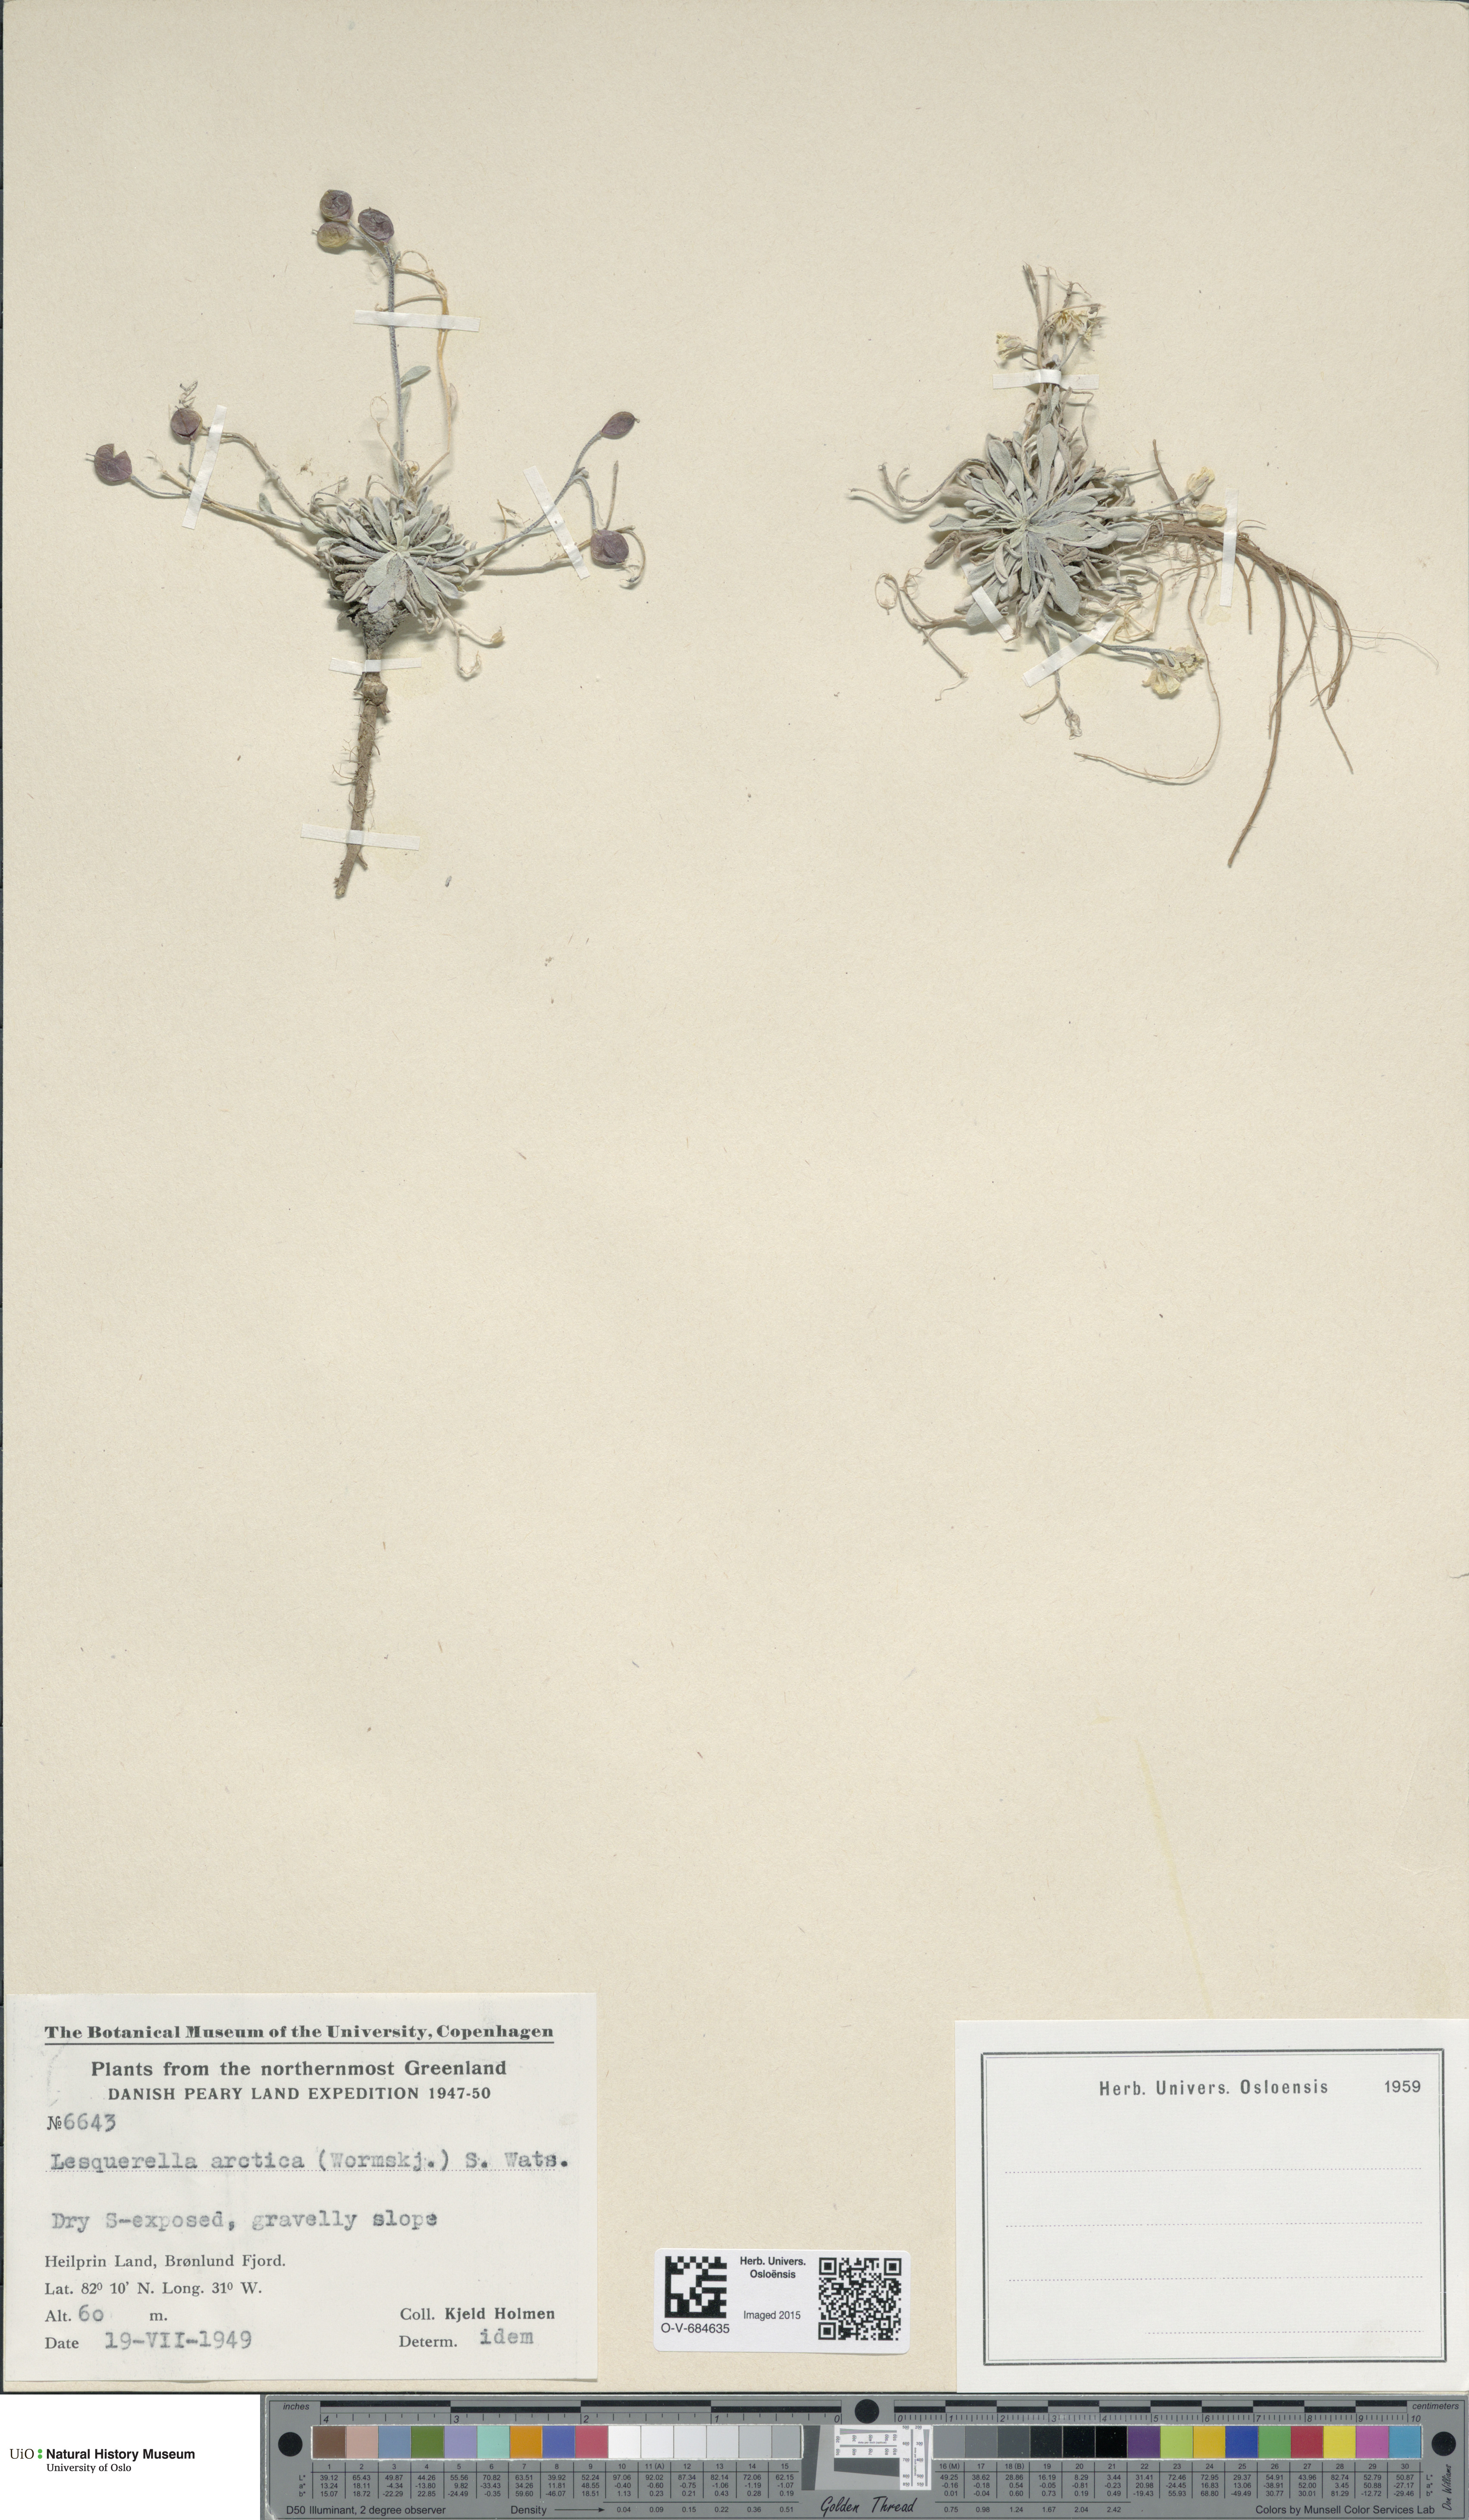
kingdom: Plantae
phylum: Tracheophyta
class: Magnoliopsida
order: Brassicales
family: Brassicaceae
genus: Physaria
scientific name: Physaria arctica
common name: Arctic bladderpod
